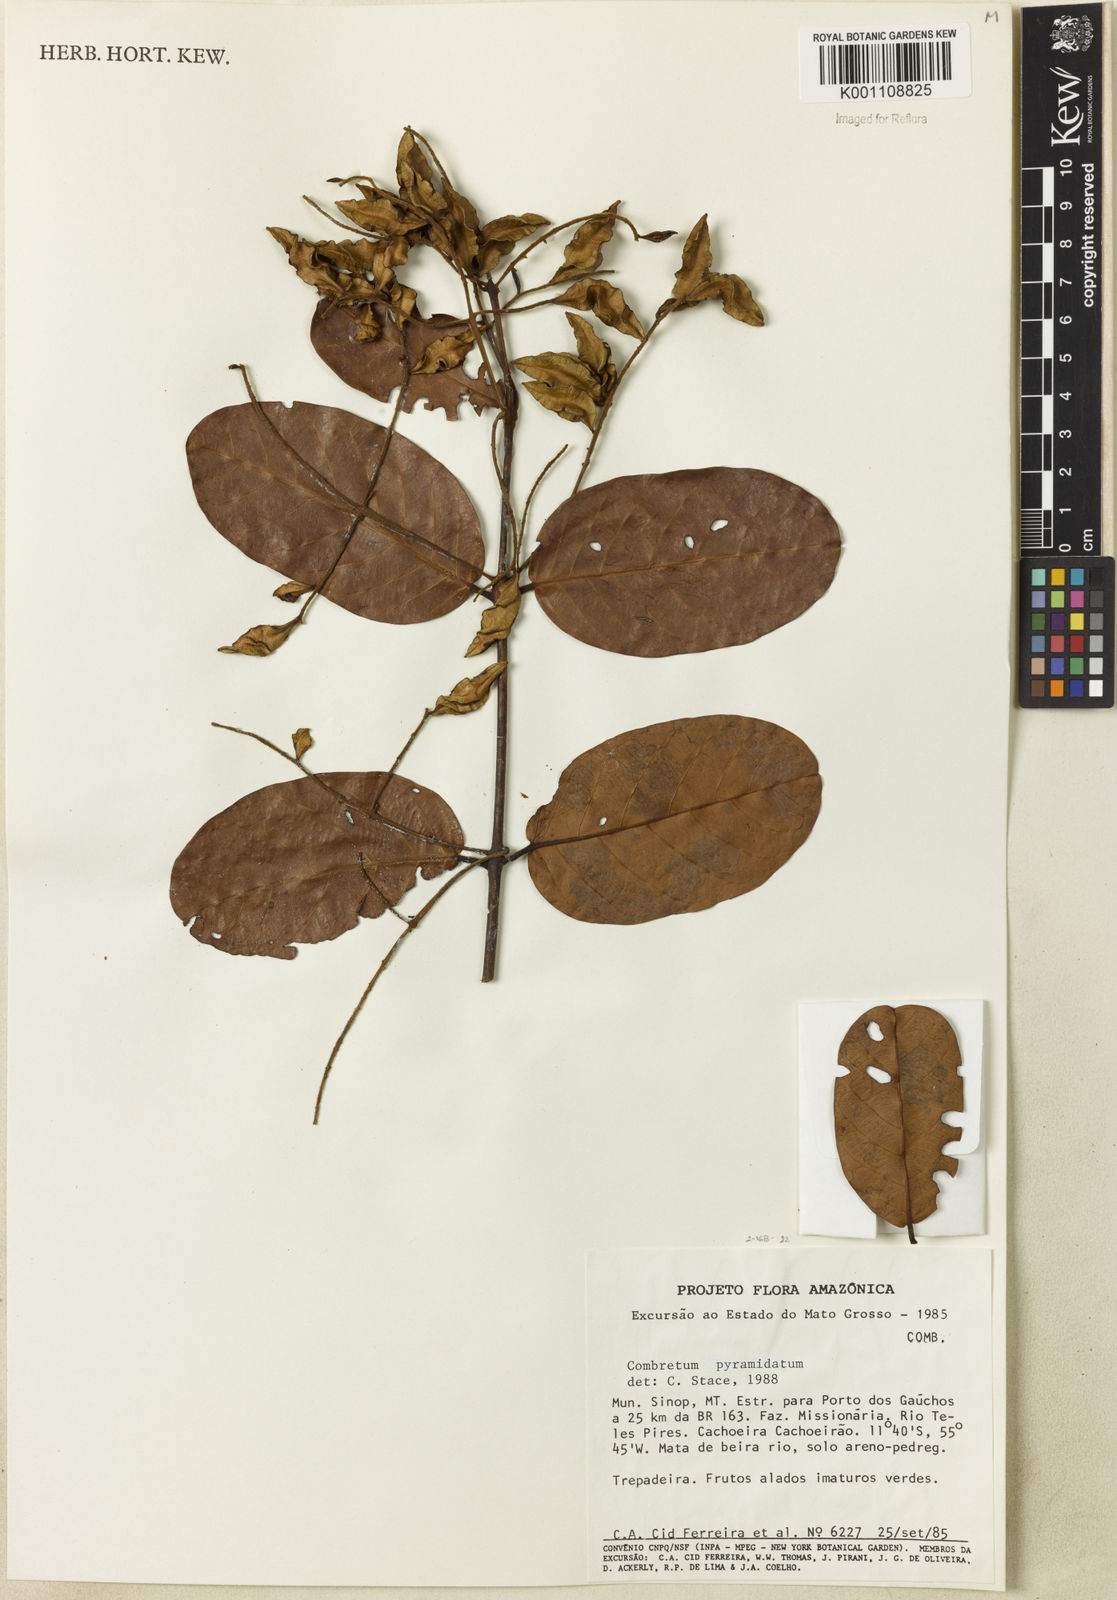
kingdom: Plantae
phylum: Tracheophyta
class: Magnoliopsida
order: Myrtales
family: Combretaceae
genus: Combretum
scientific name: Combretum pyramidatum
